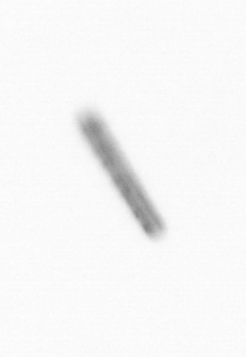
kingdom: Chromista
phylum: Ochrophyta
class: Bacillariophyceae
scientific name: Bacillariophyceae
